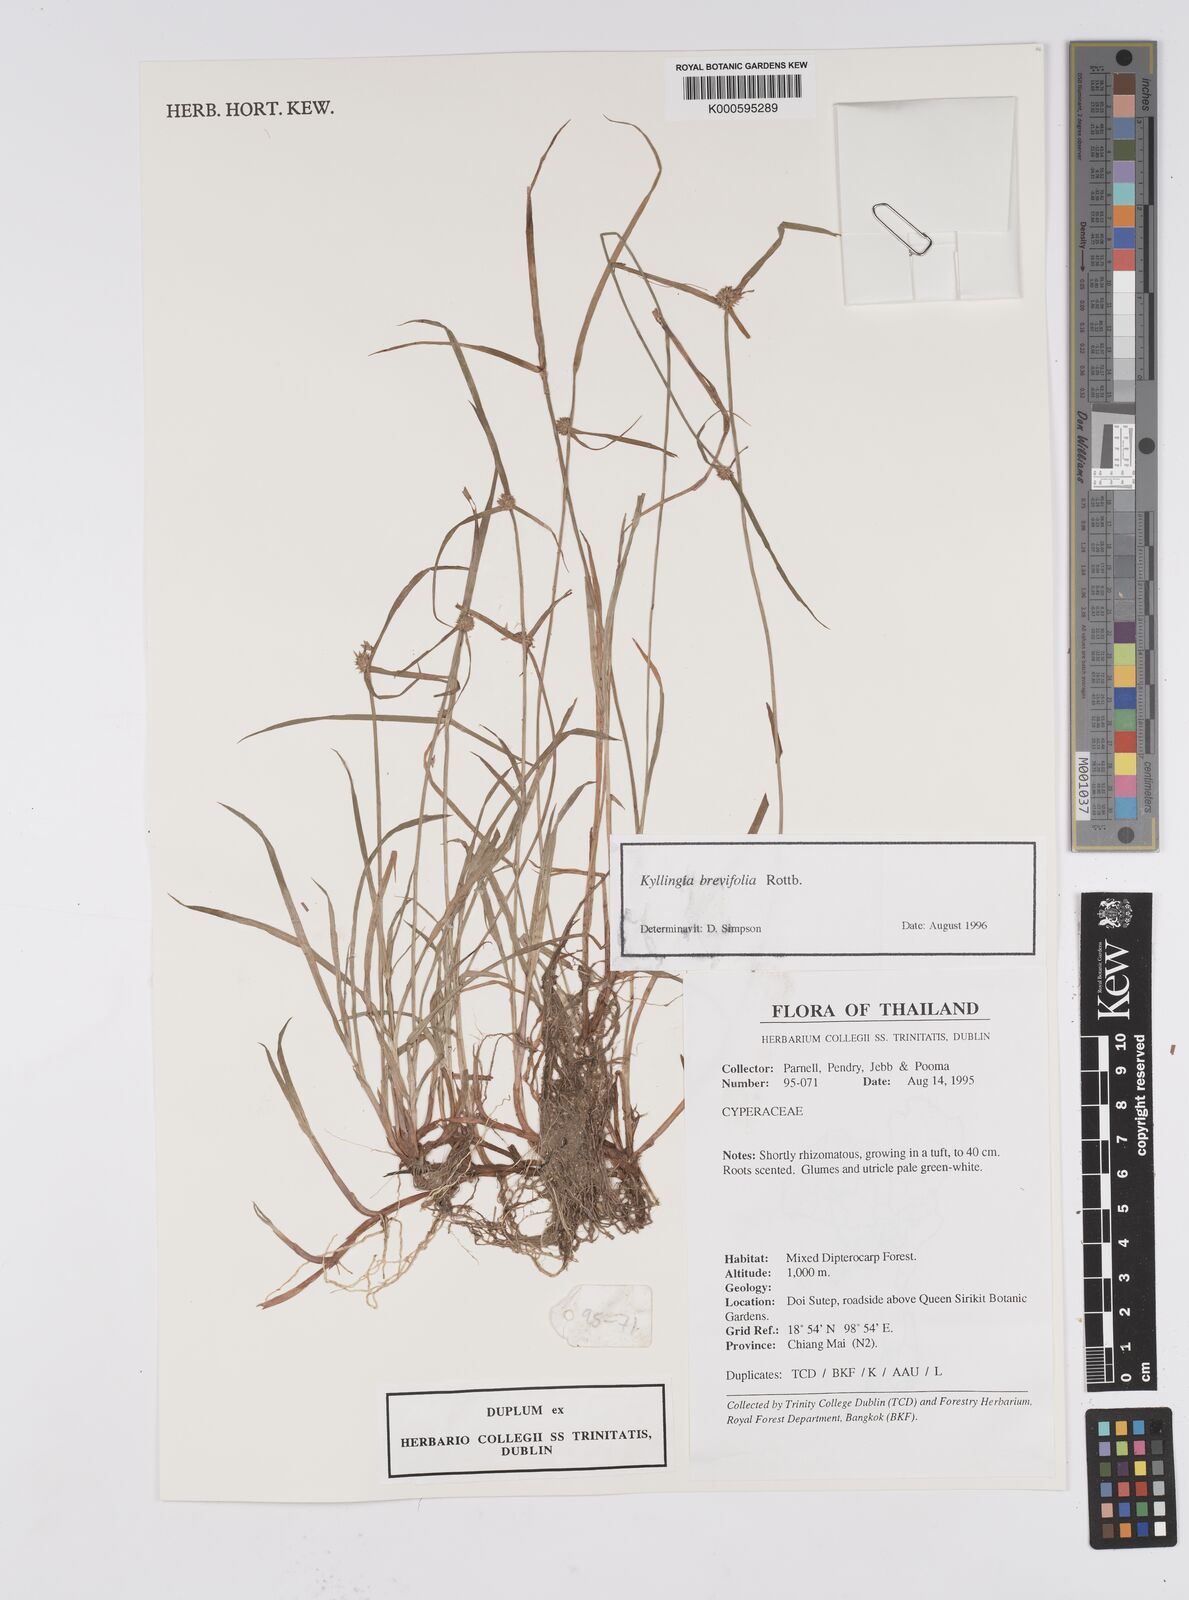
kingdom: Plantae
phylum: Tracheophyta
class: Liliopsida
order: Poales
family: Cyperaceae
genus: Cyperus
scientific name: Cyperus brevifolius
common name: Globe kyllinga
